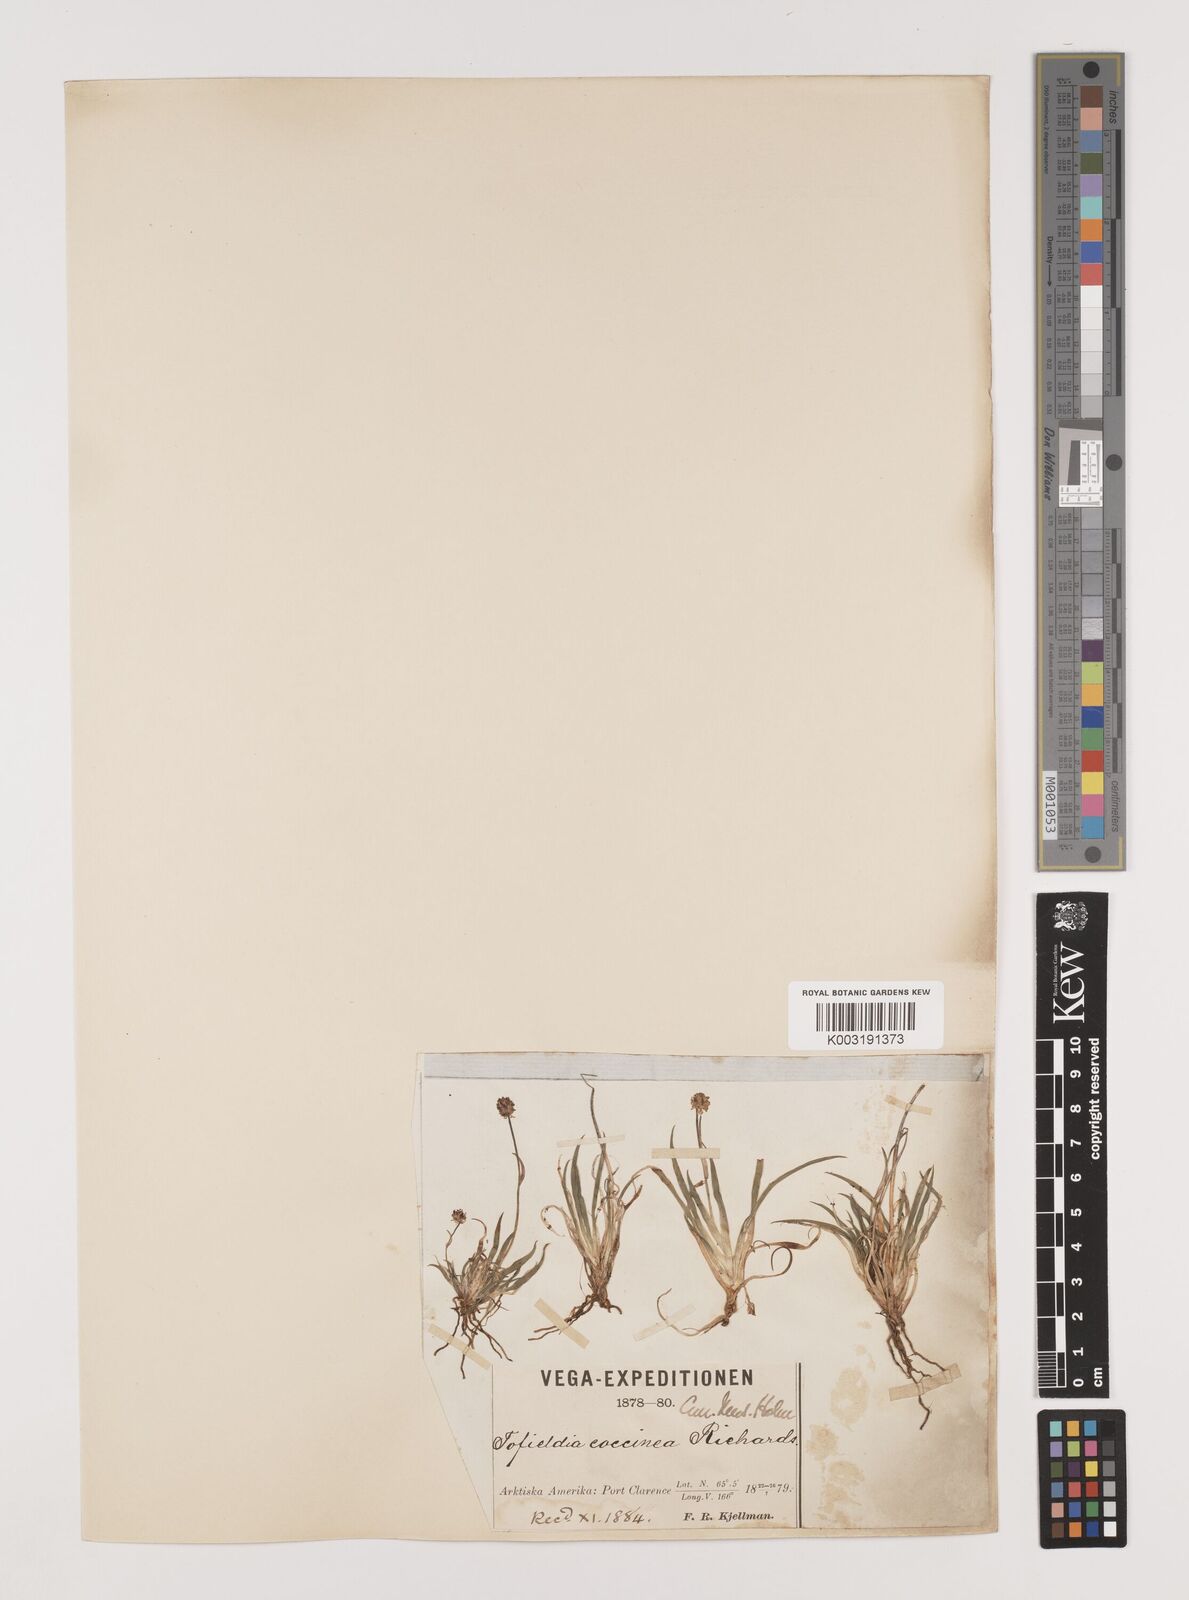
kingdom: Plantae
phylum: Tracheophyta
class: Liliopsida
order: Alismatales
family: Tofieldiaceae
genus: Tofieldia
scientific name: Tofieldia coccinea
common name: Northern false asphodel
